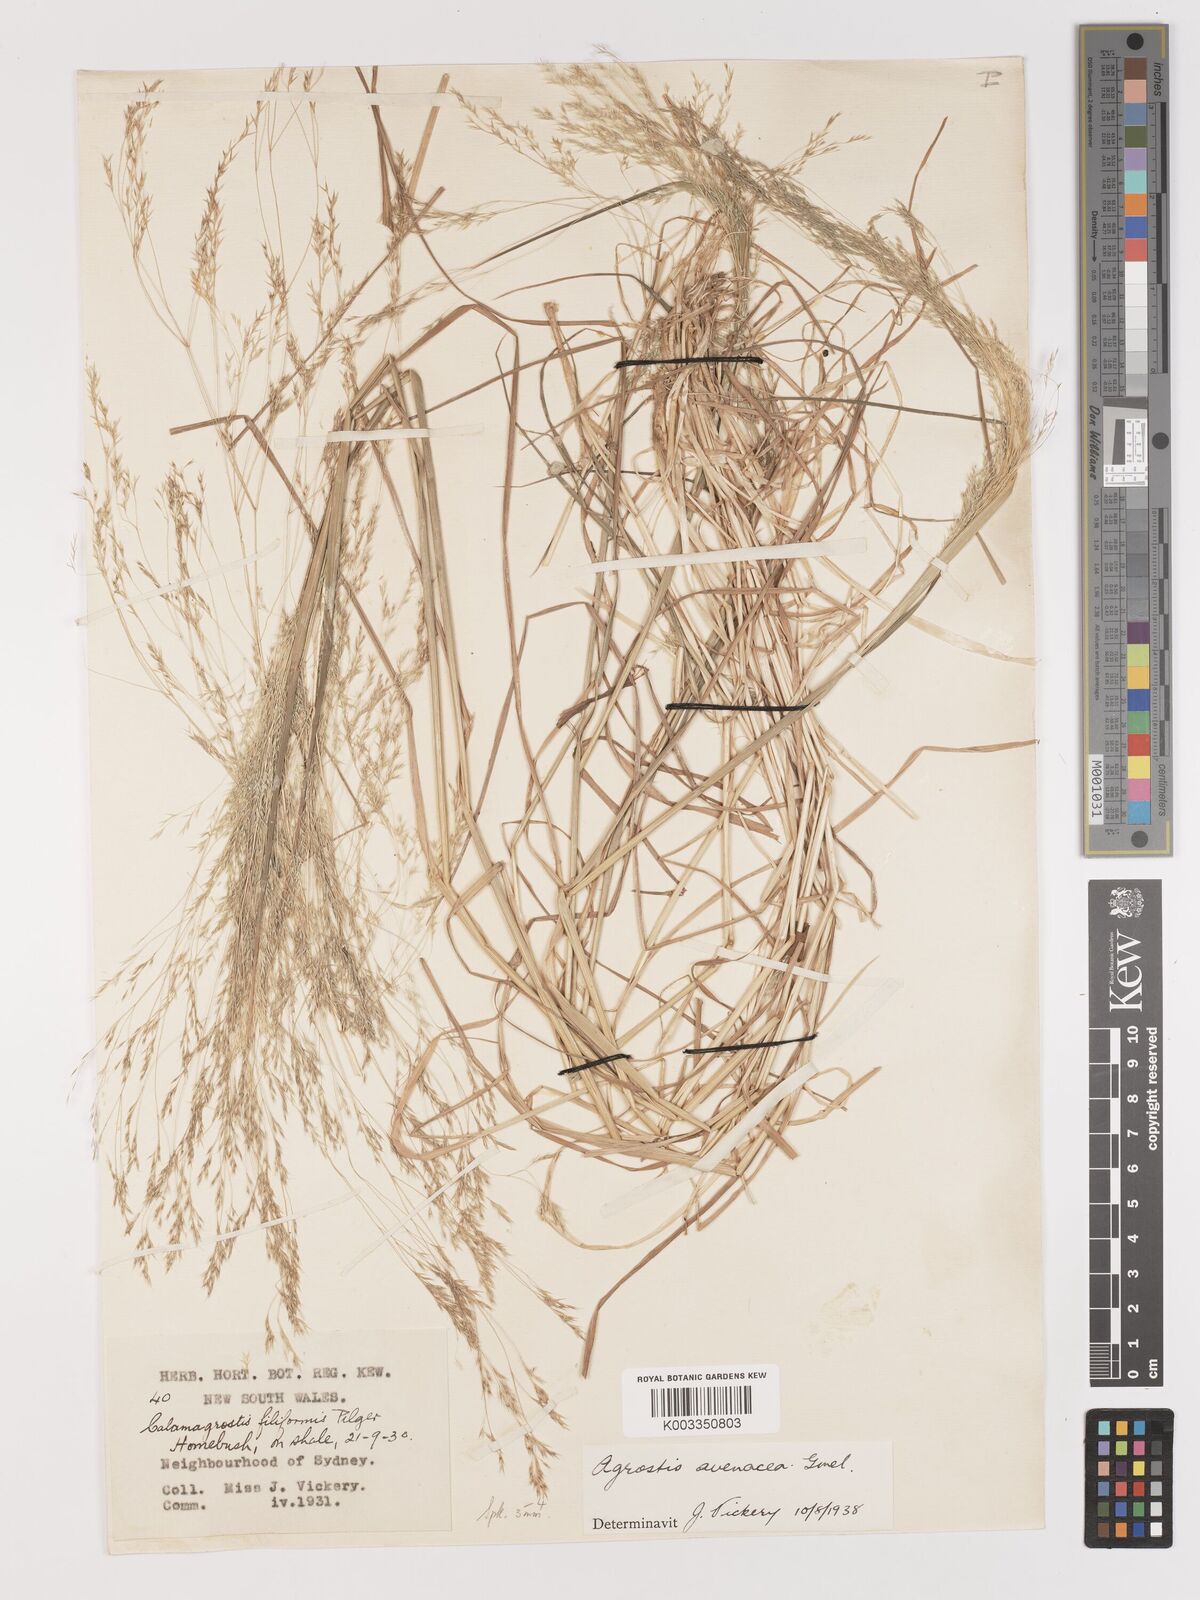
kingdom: Plantae
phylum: Tracheophyta
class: Liliopsida
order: Poales
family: Poaceae
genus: Lachnagrostis
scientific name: Lachnagrostis filiformis
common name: Bentgrass
